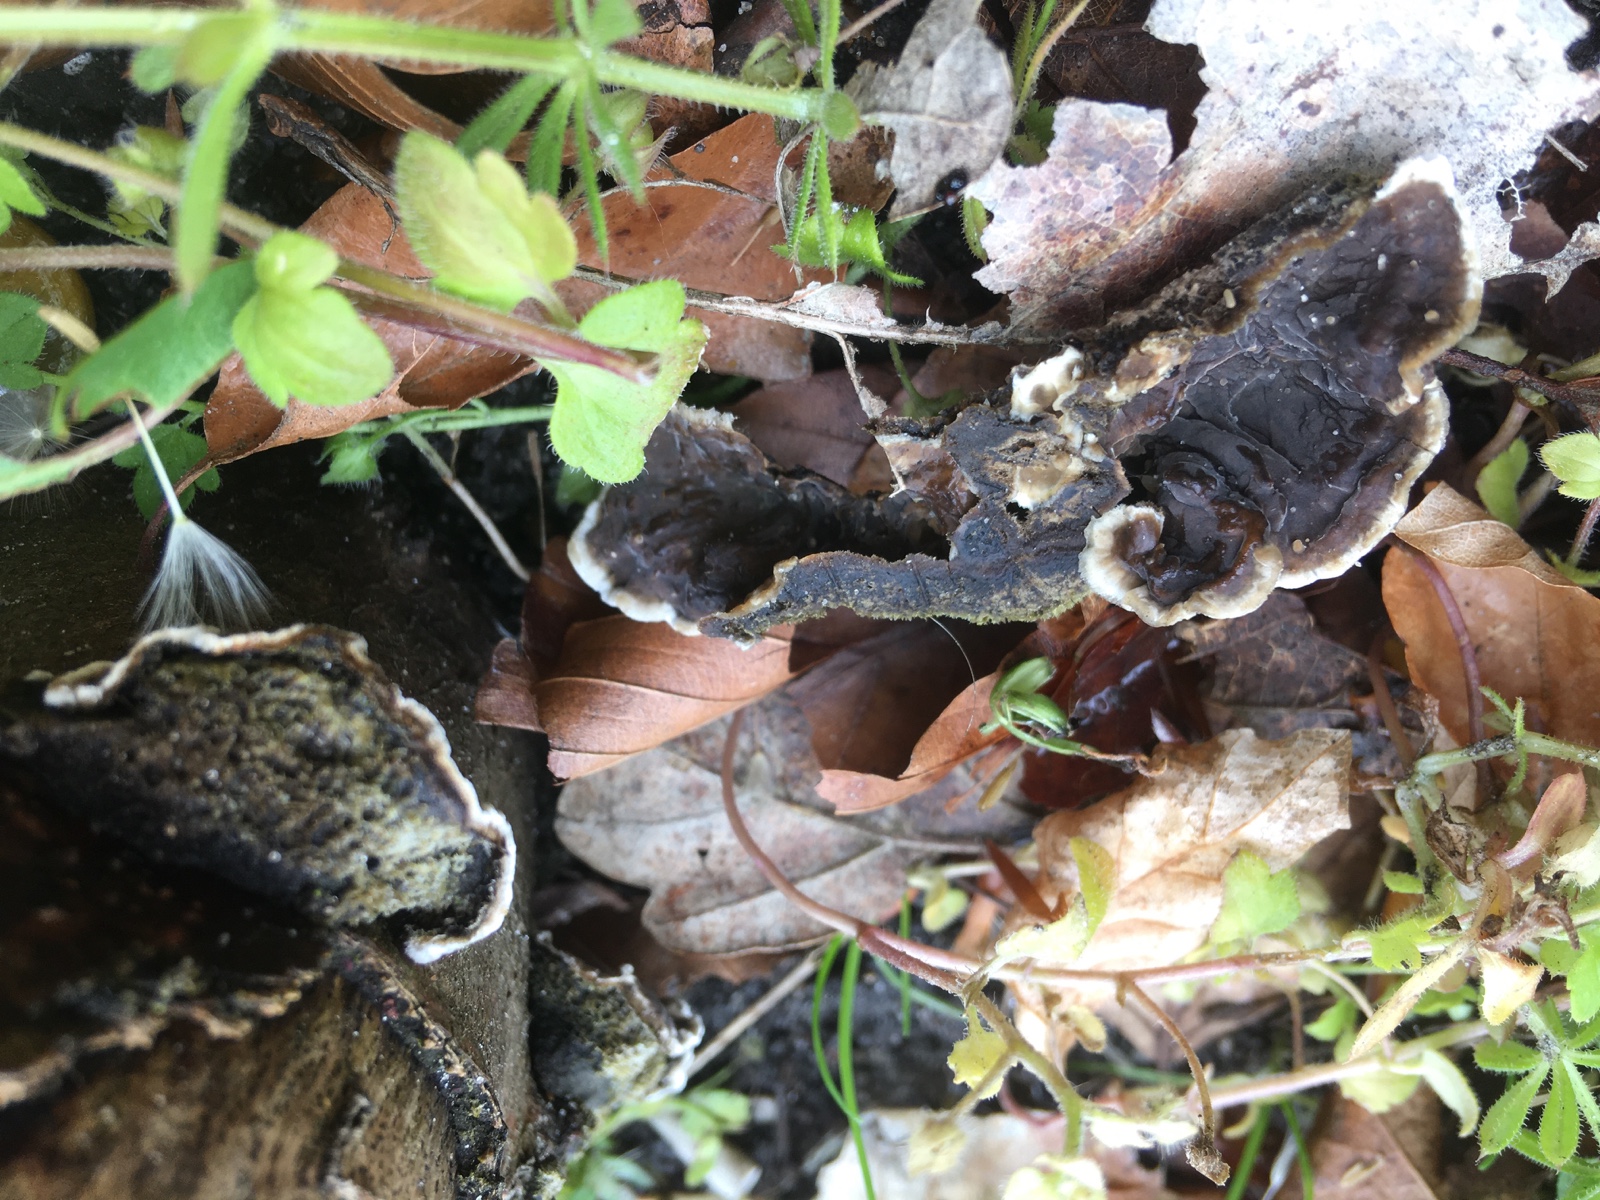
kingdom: Fungi
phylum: Basidiomycota
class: Agaricomycetes
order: Auriculariales
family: Auriculariaceae
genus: Auricularia
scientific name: Auricularia mesenterica
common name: håret judasøre
